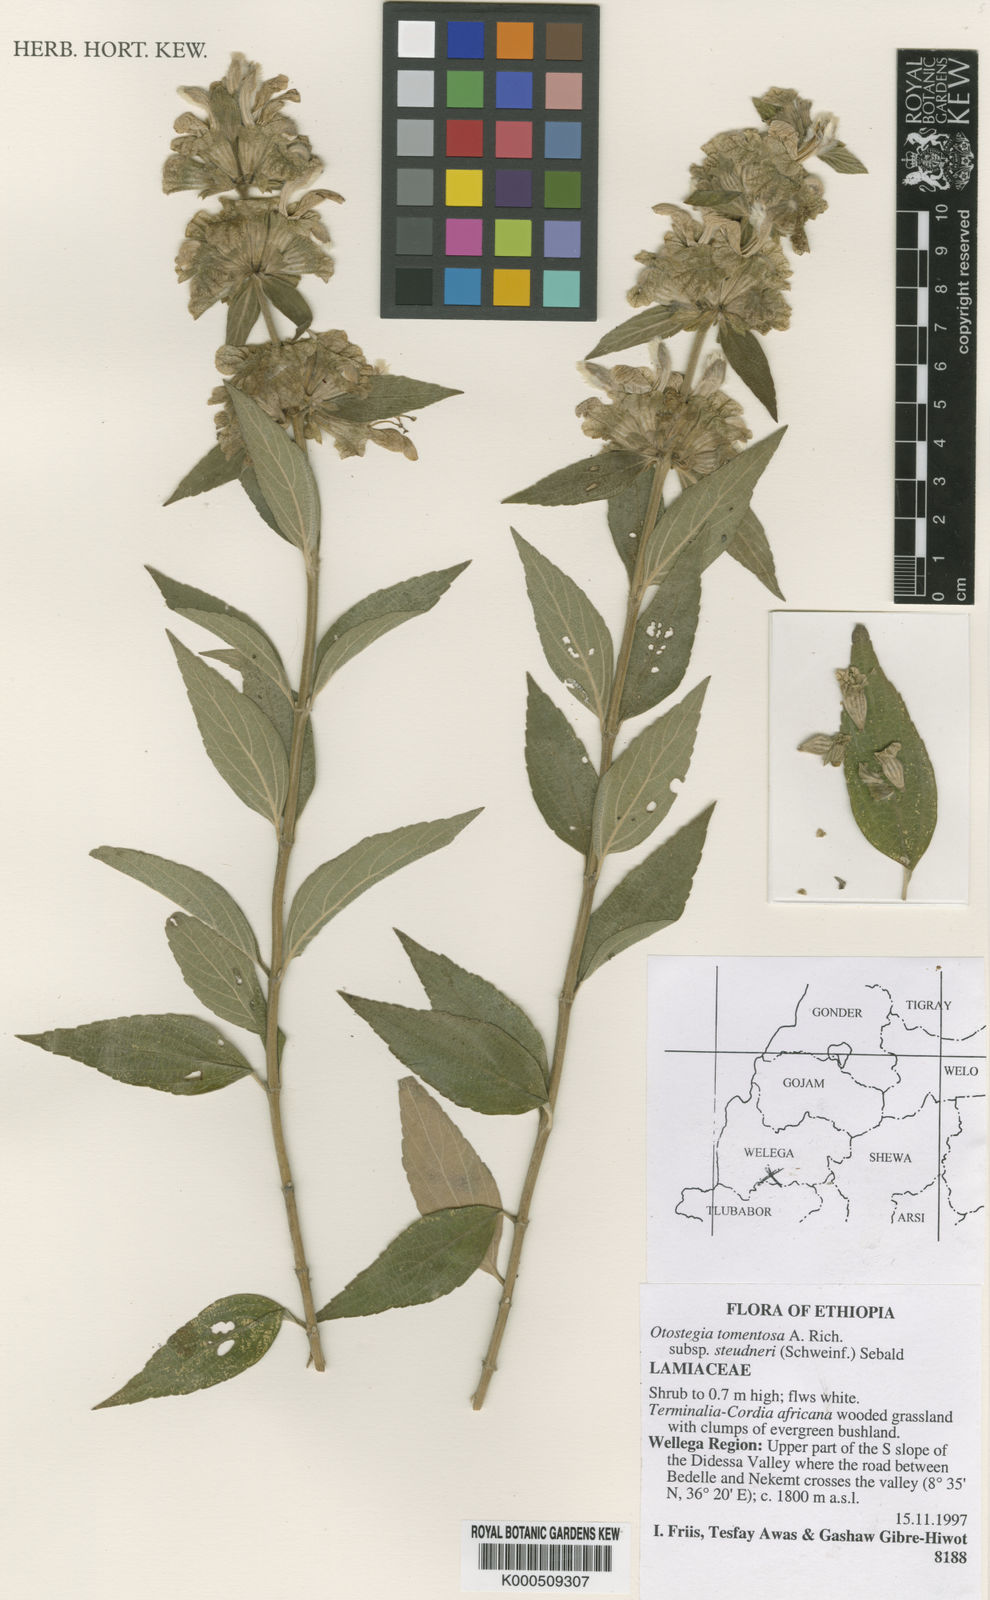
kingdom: Plantae
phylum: Tracheophyta
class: Magnoliopsida
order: Lamiales
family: Lamiaceae
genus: Otostegia
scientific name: Otostegia tomentosa
